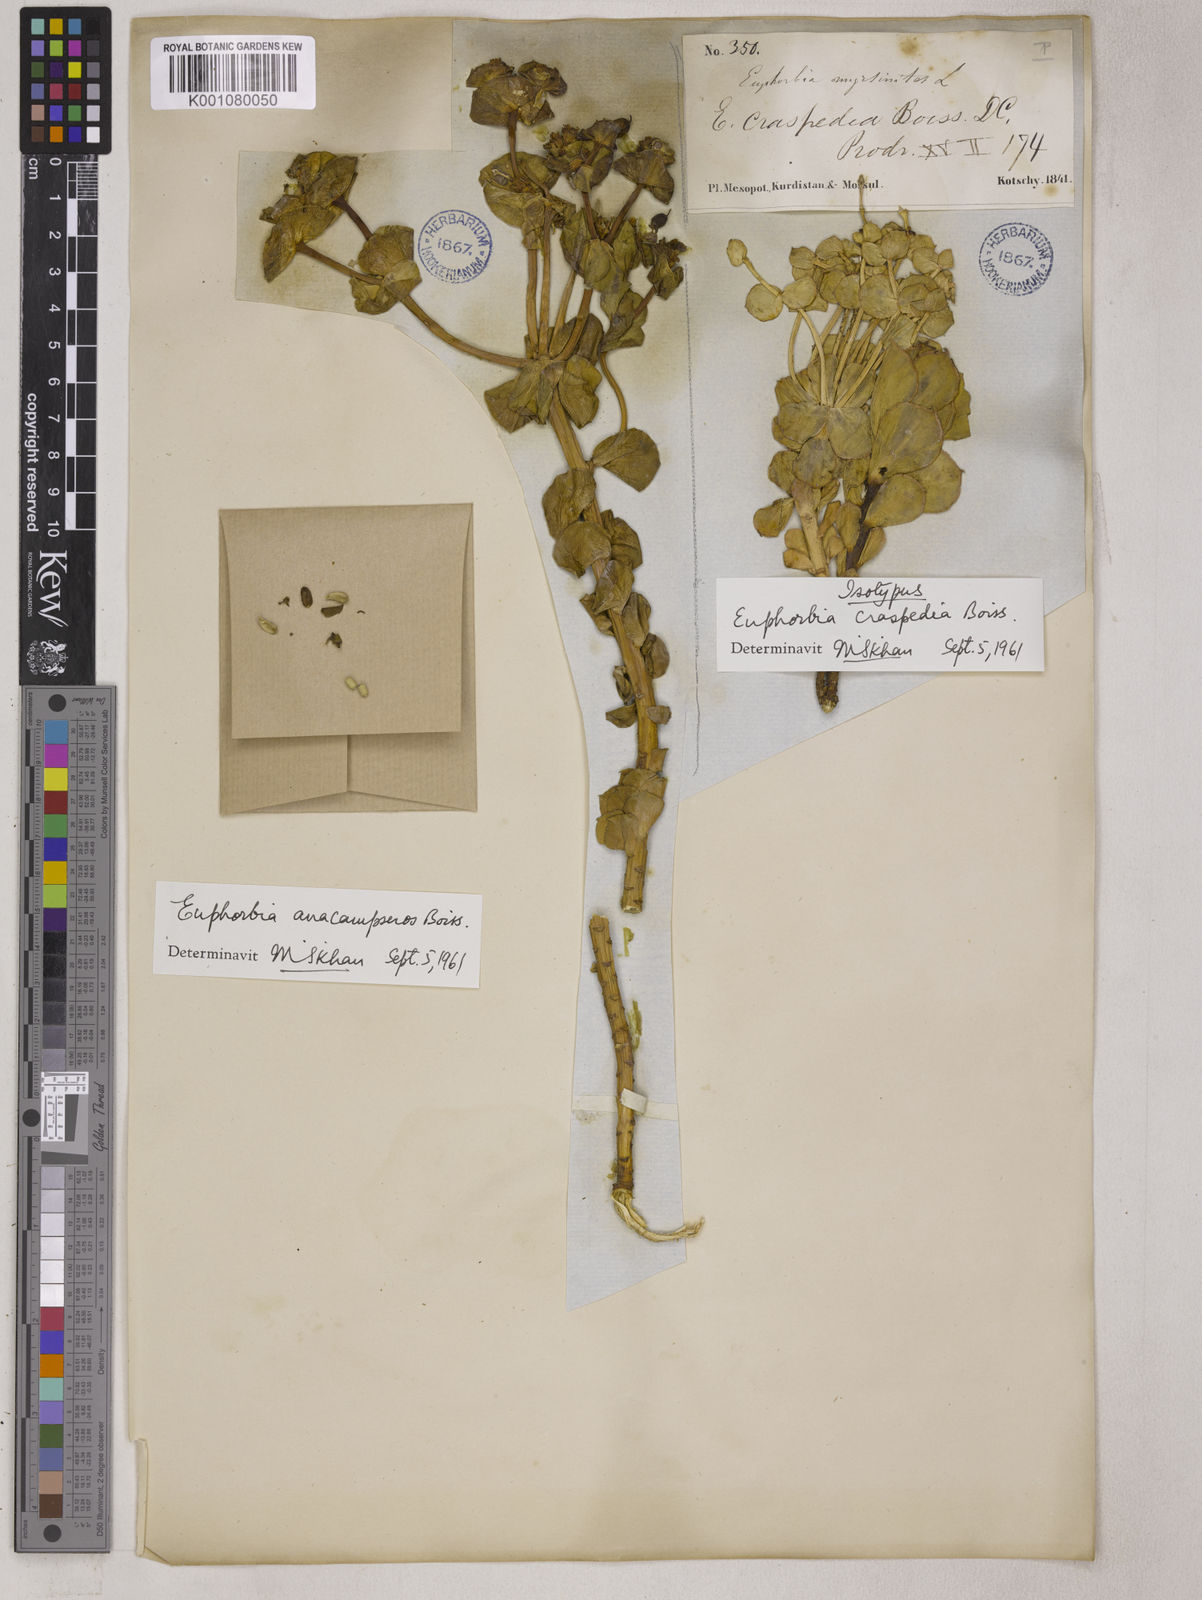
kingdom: Plantae
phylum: Tracheophyta
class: Magnoliopsida
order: Malpighiales
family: Euphorbiaceae
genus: Euphorbia
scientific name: Euphorbia craspedia
